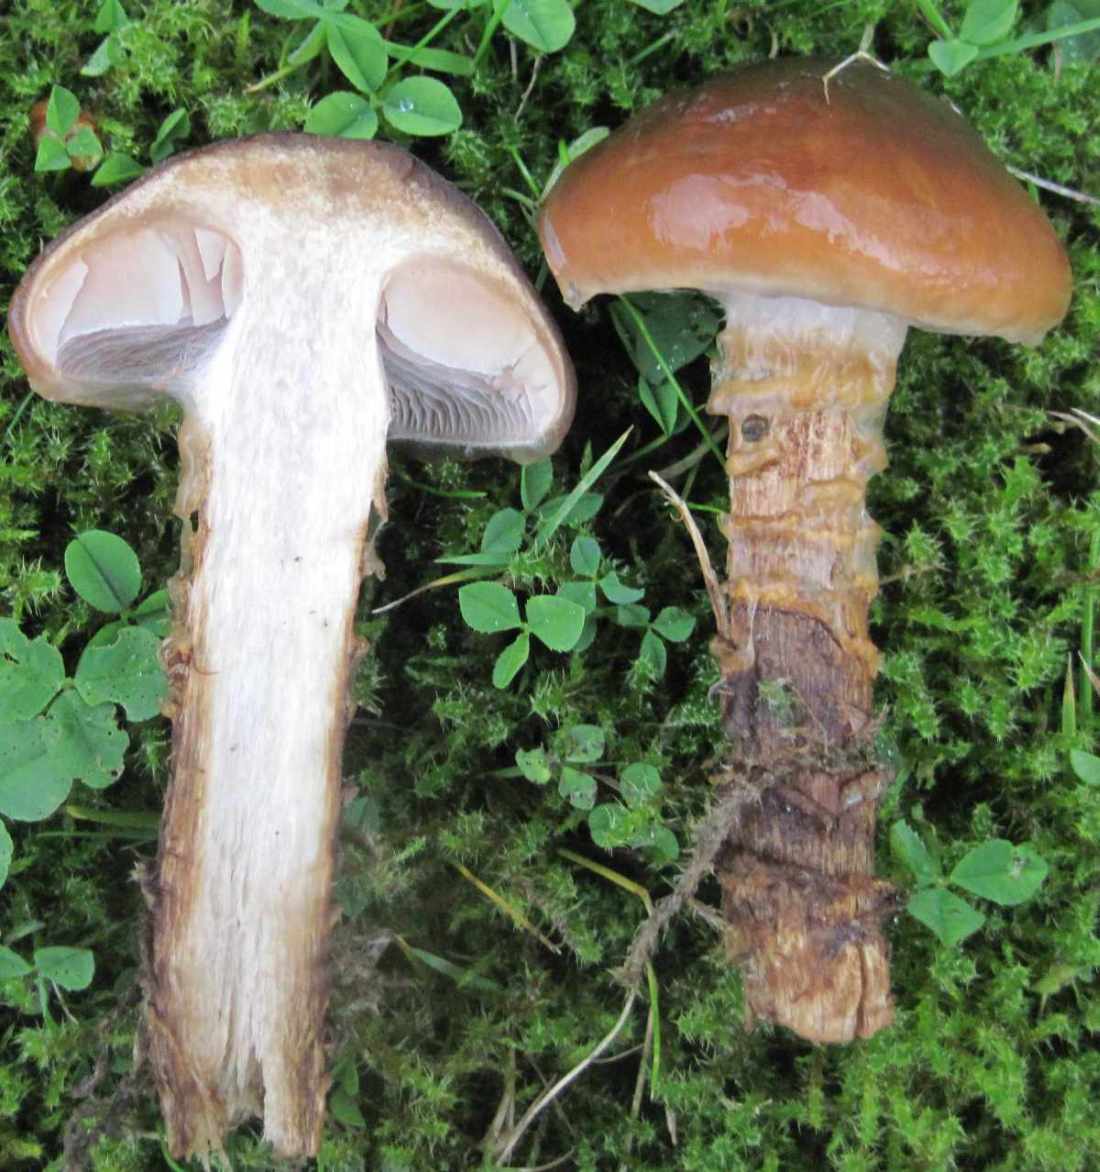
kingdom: Fungi
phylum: Basidiomycota
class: Agaricomycetes
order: Agaricales
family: Cortinariaceae
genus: Cortinarius
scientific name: Cortinarius trivialis
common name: brunslimet slørhat
